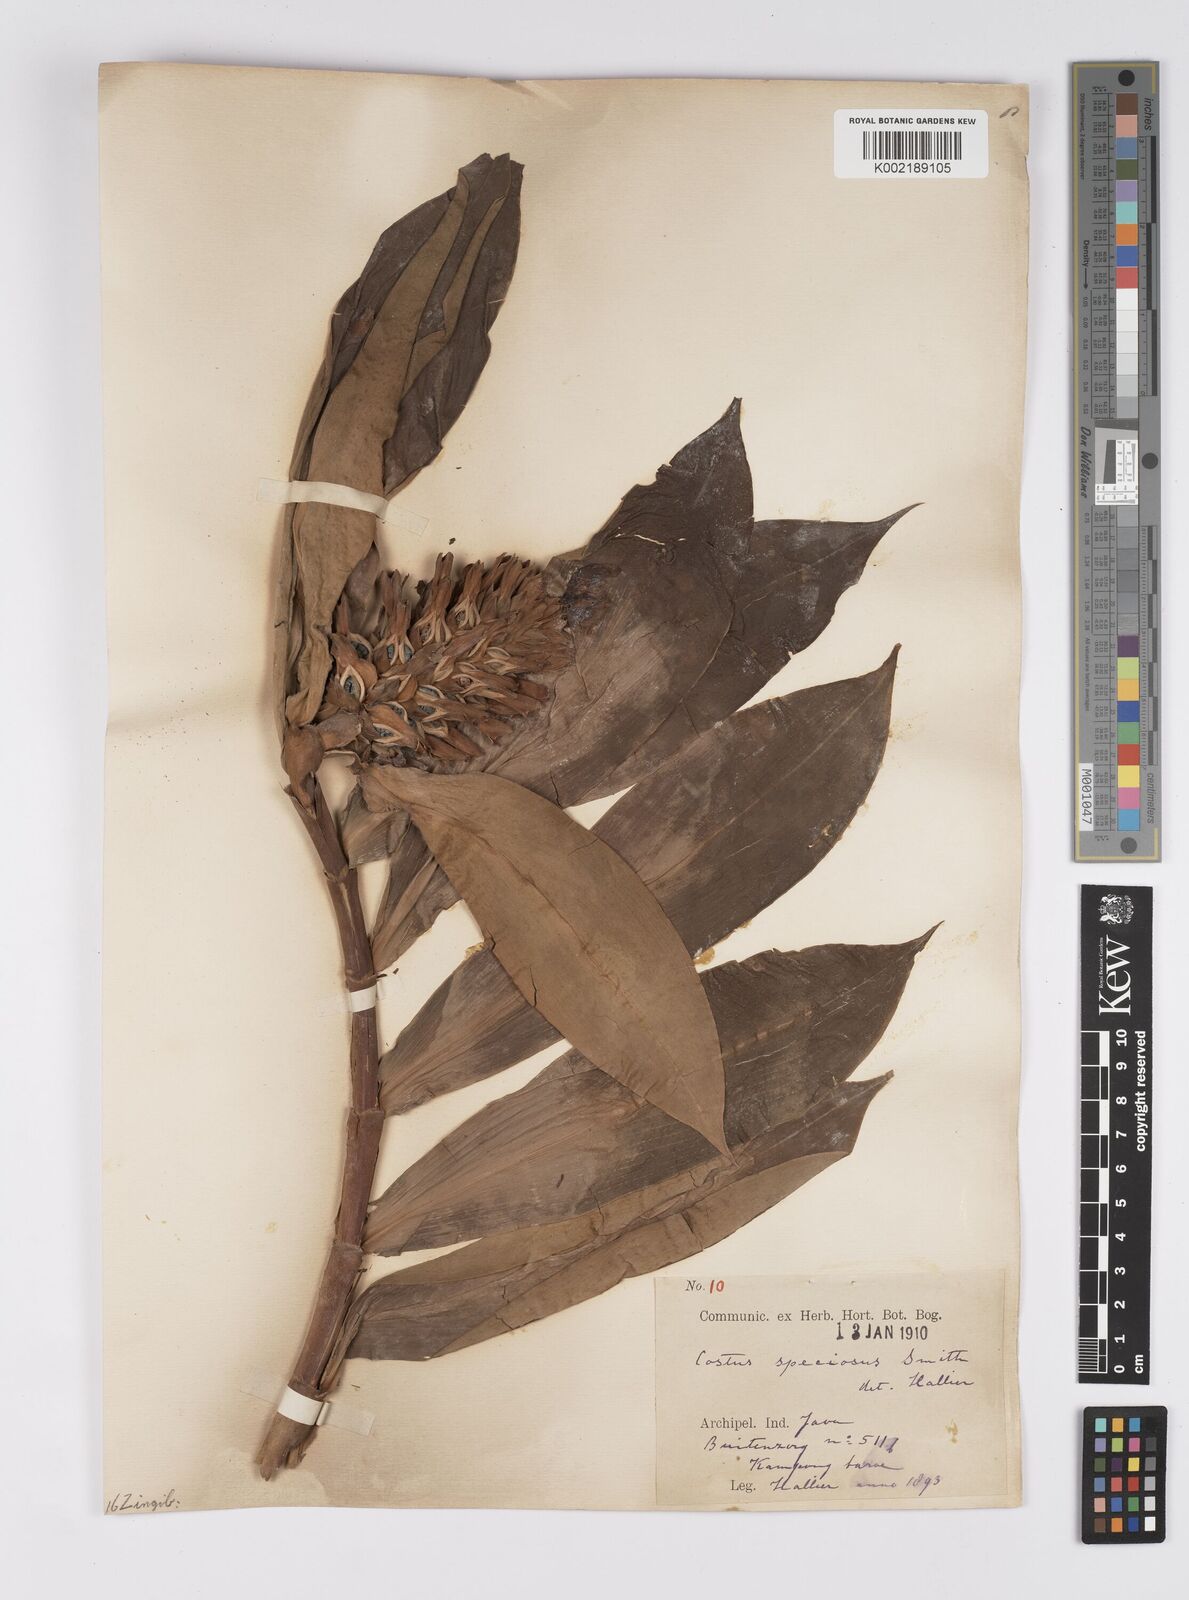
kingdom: Plantae
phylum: Tracheophyta
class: Liliopsida
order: Zingiberales
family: Costaceae
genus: Hellenia
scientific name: Hellenia speciosa
